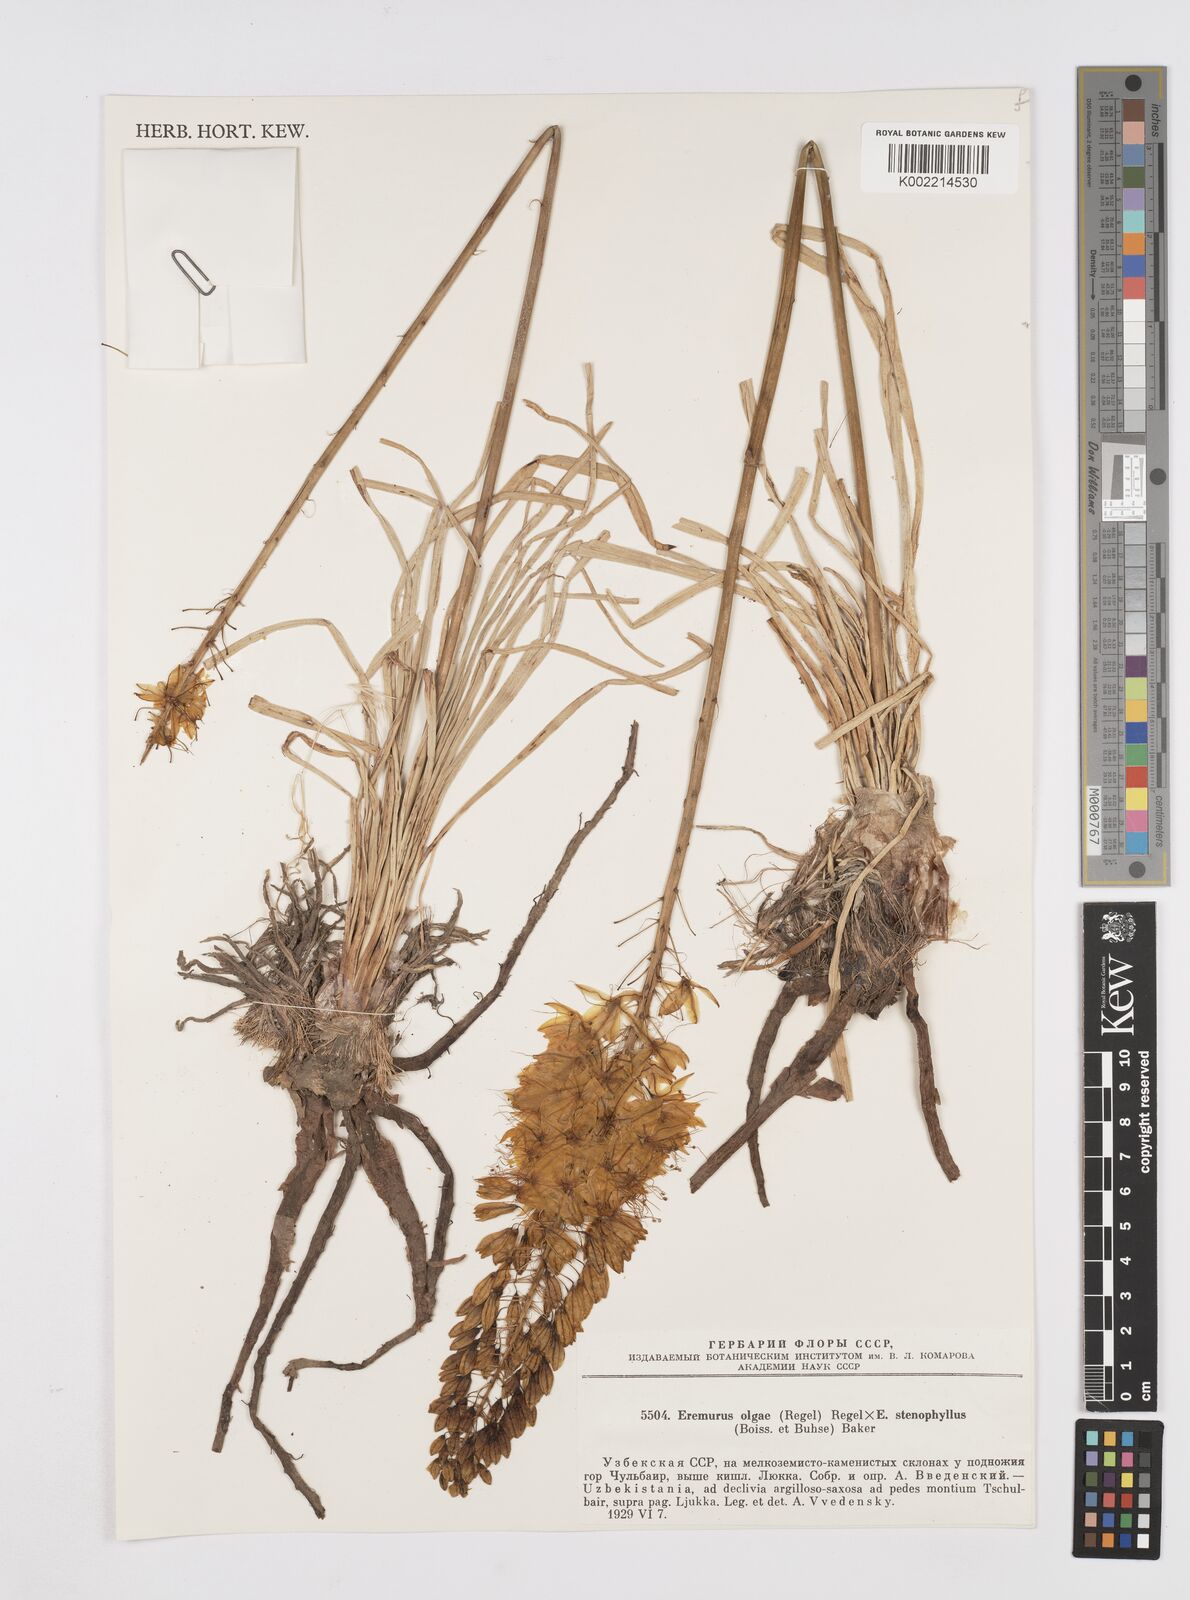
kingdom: Plantae
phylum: Tracheophyta
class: Liliopsida
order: Asparagales
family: Asphodelaceae
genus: Eremurus
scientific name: Eremurus olgae
